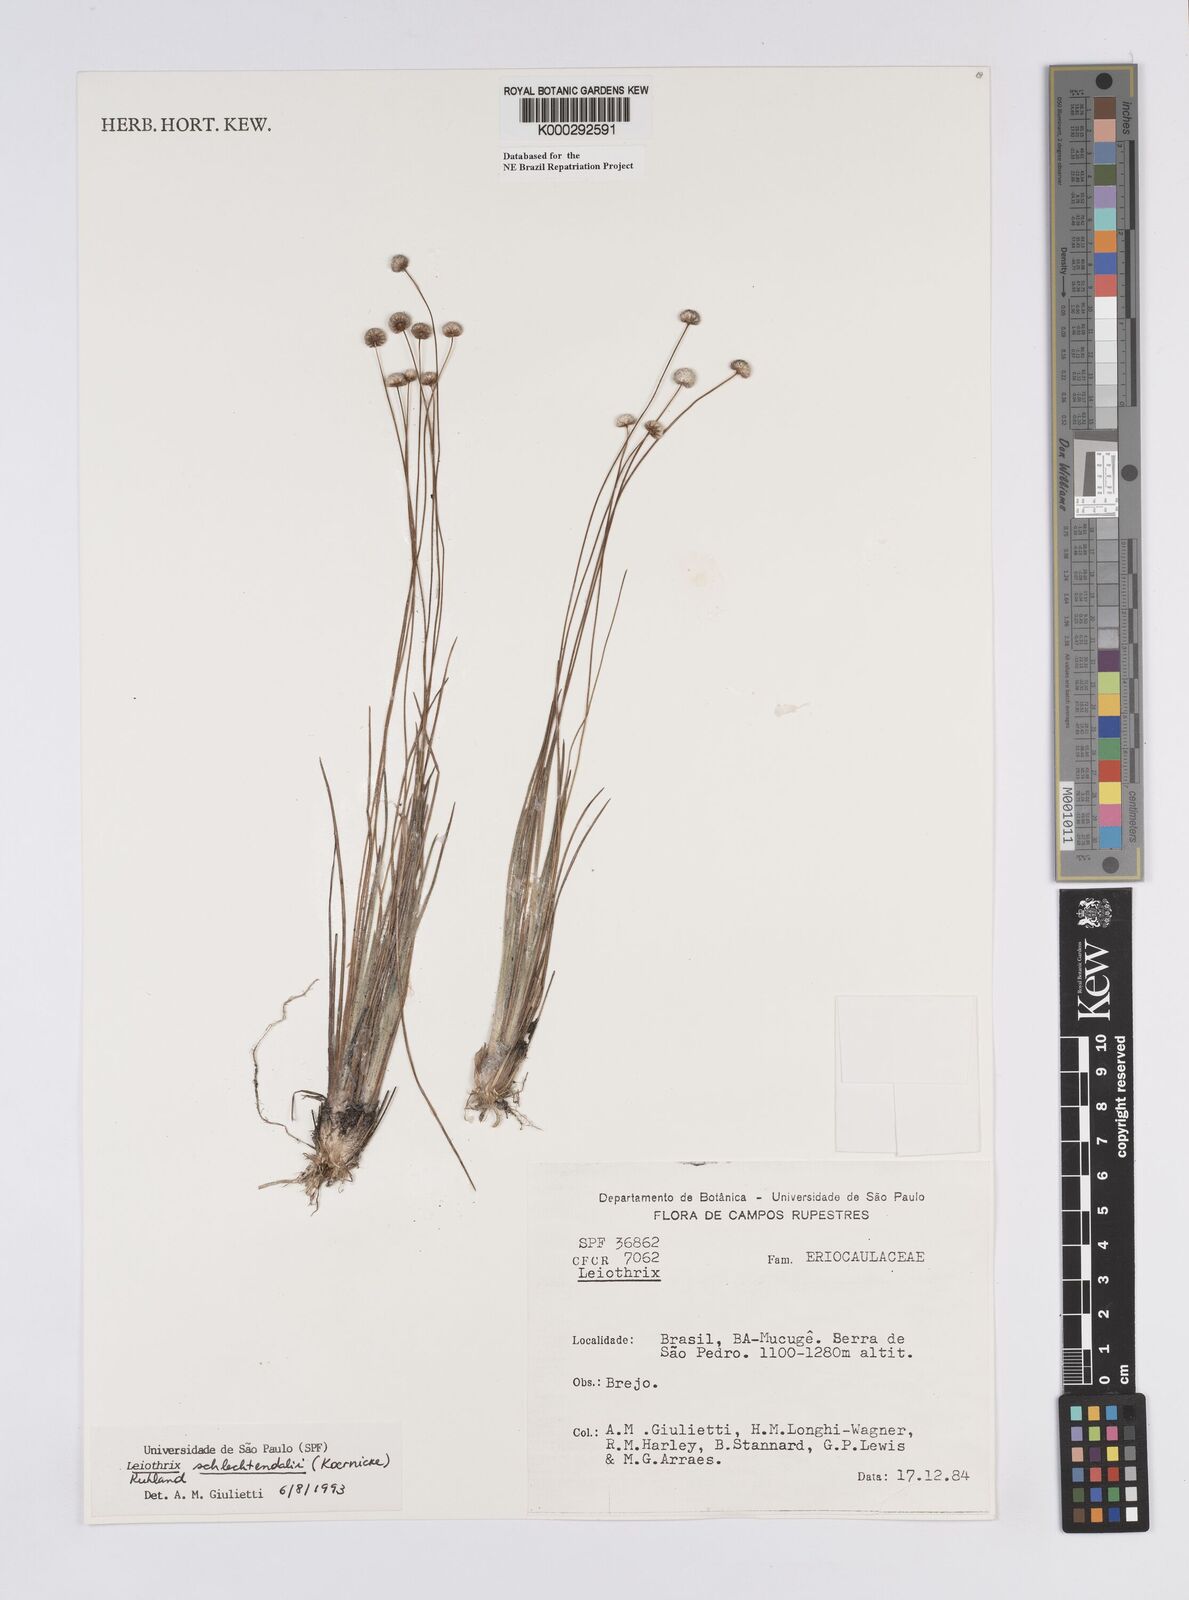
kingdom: Plantae
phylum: Tracheophyta
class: Liliopsida
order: Poales
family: Eriocaulaceae
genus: Leiothrix
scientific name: Leiothrix schlechtendalii
